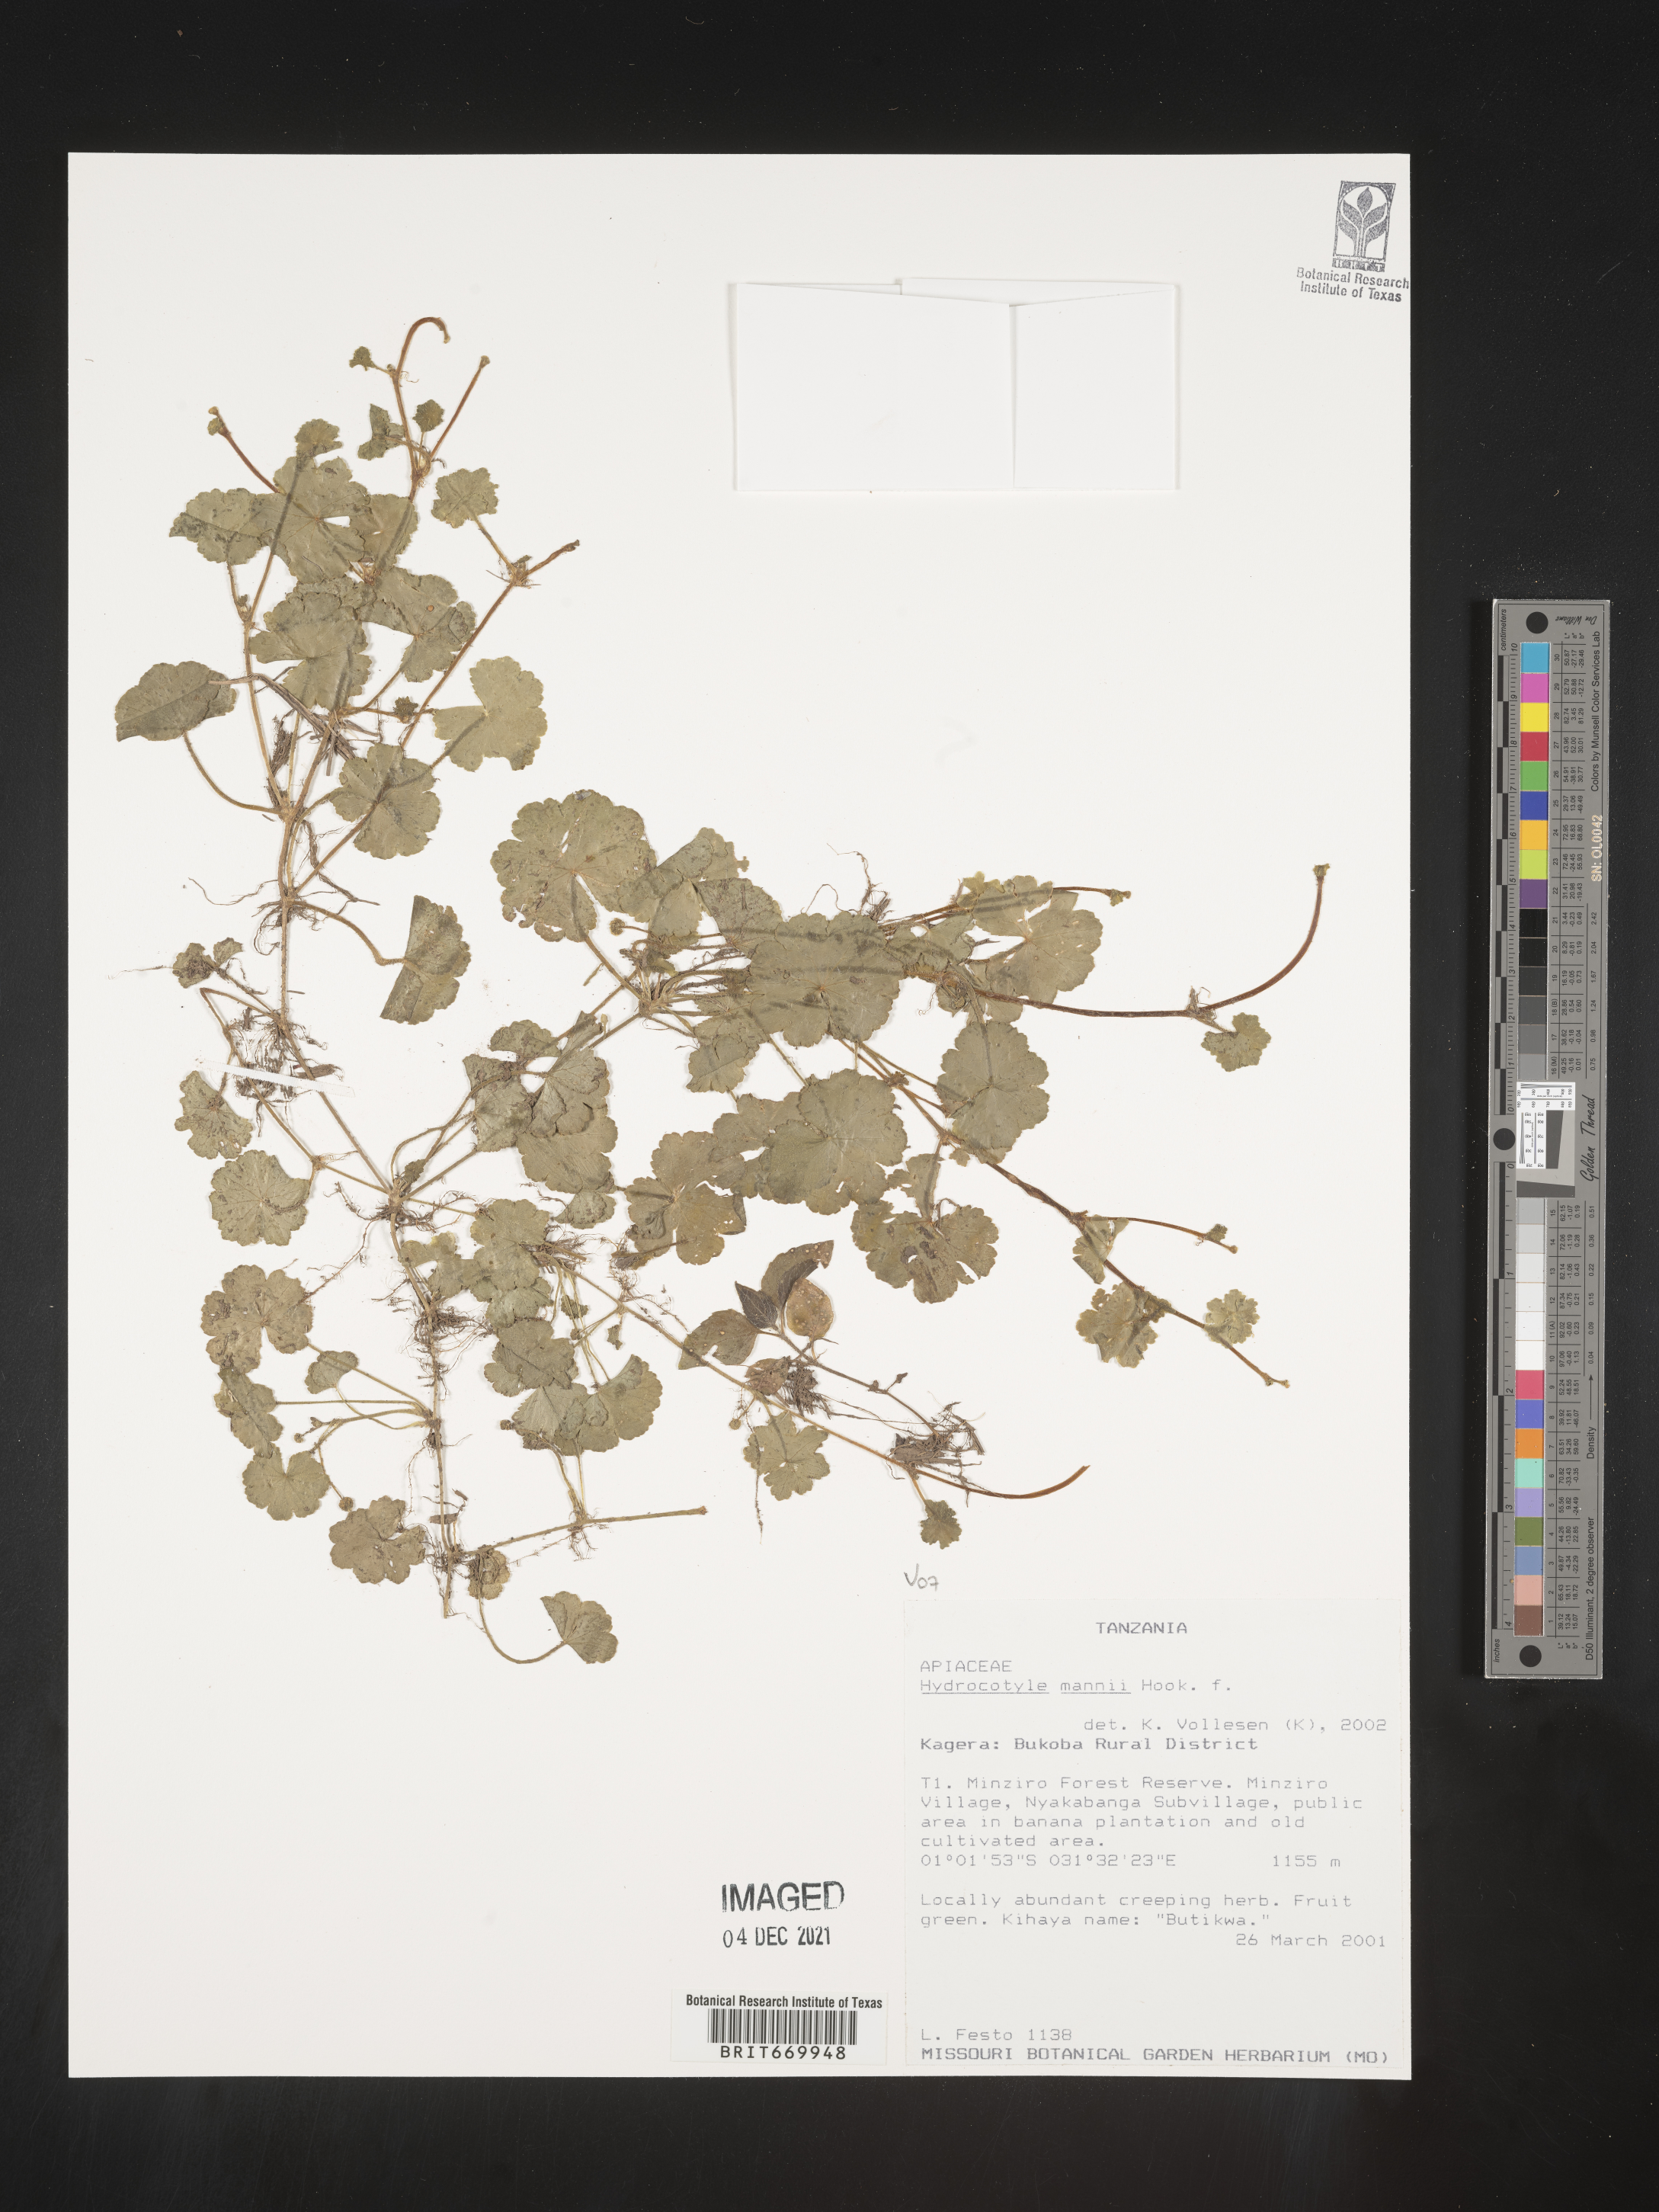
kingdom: Plantae
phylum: Tracheophyta
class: Magnoliopsida
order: Apiales
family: Araliaceae
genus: Hydrocotyle
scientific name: Hydrocotyle
